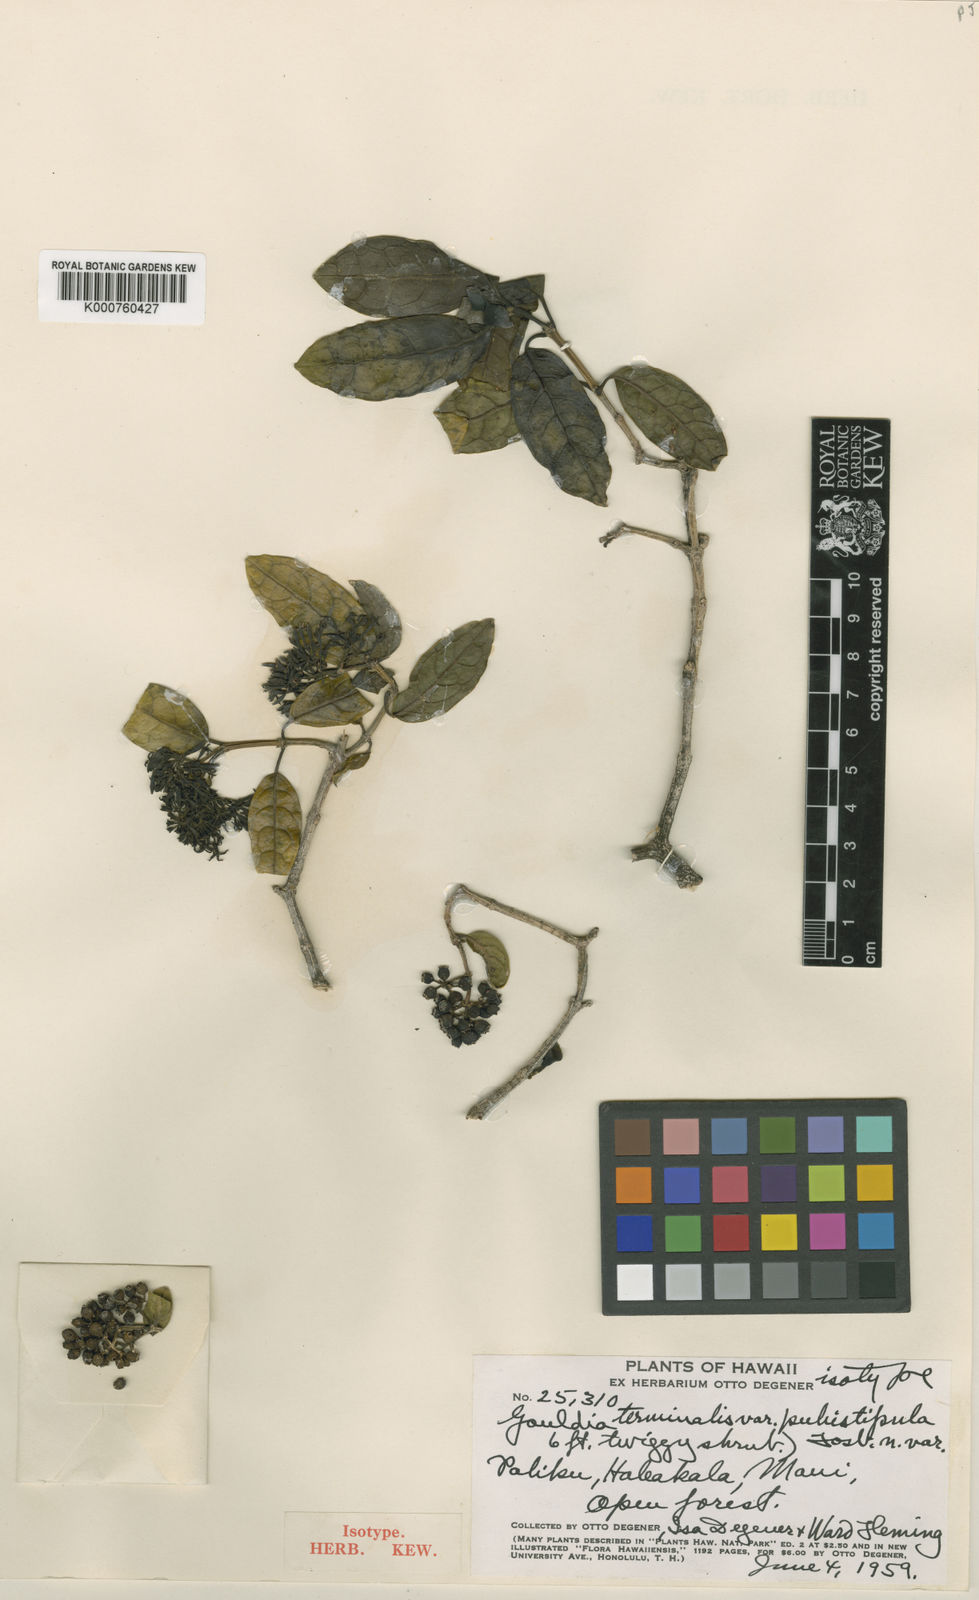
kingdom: Plantae
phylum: Tracheophyta
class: Magnoliopsida
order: Gentianales
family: Rubiaceae
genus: Kadua
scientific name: Kadua affinis
